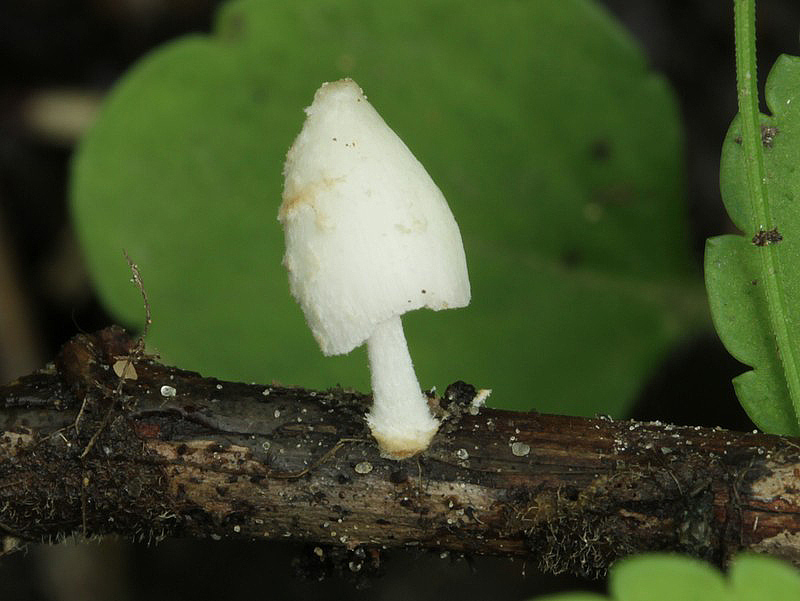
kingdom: Fungi
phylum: Basidiomycota
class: Agaricomycetes
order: Agaricales
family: Psathyrellaceae
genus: Coprinopsis
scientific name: Coprinopsis pseudofriesii
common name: gulfnugget blækhat
